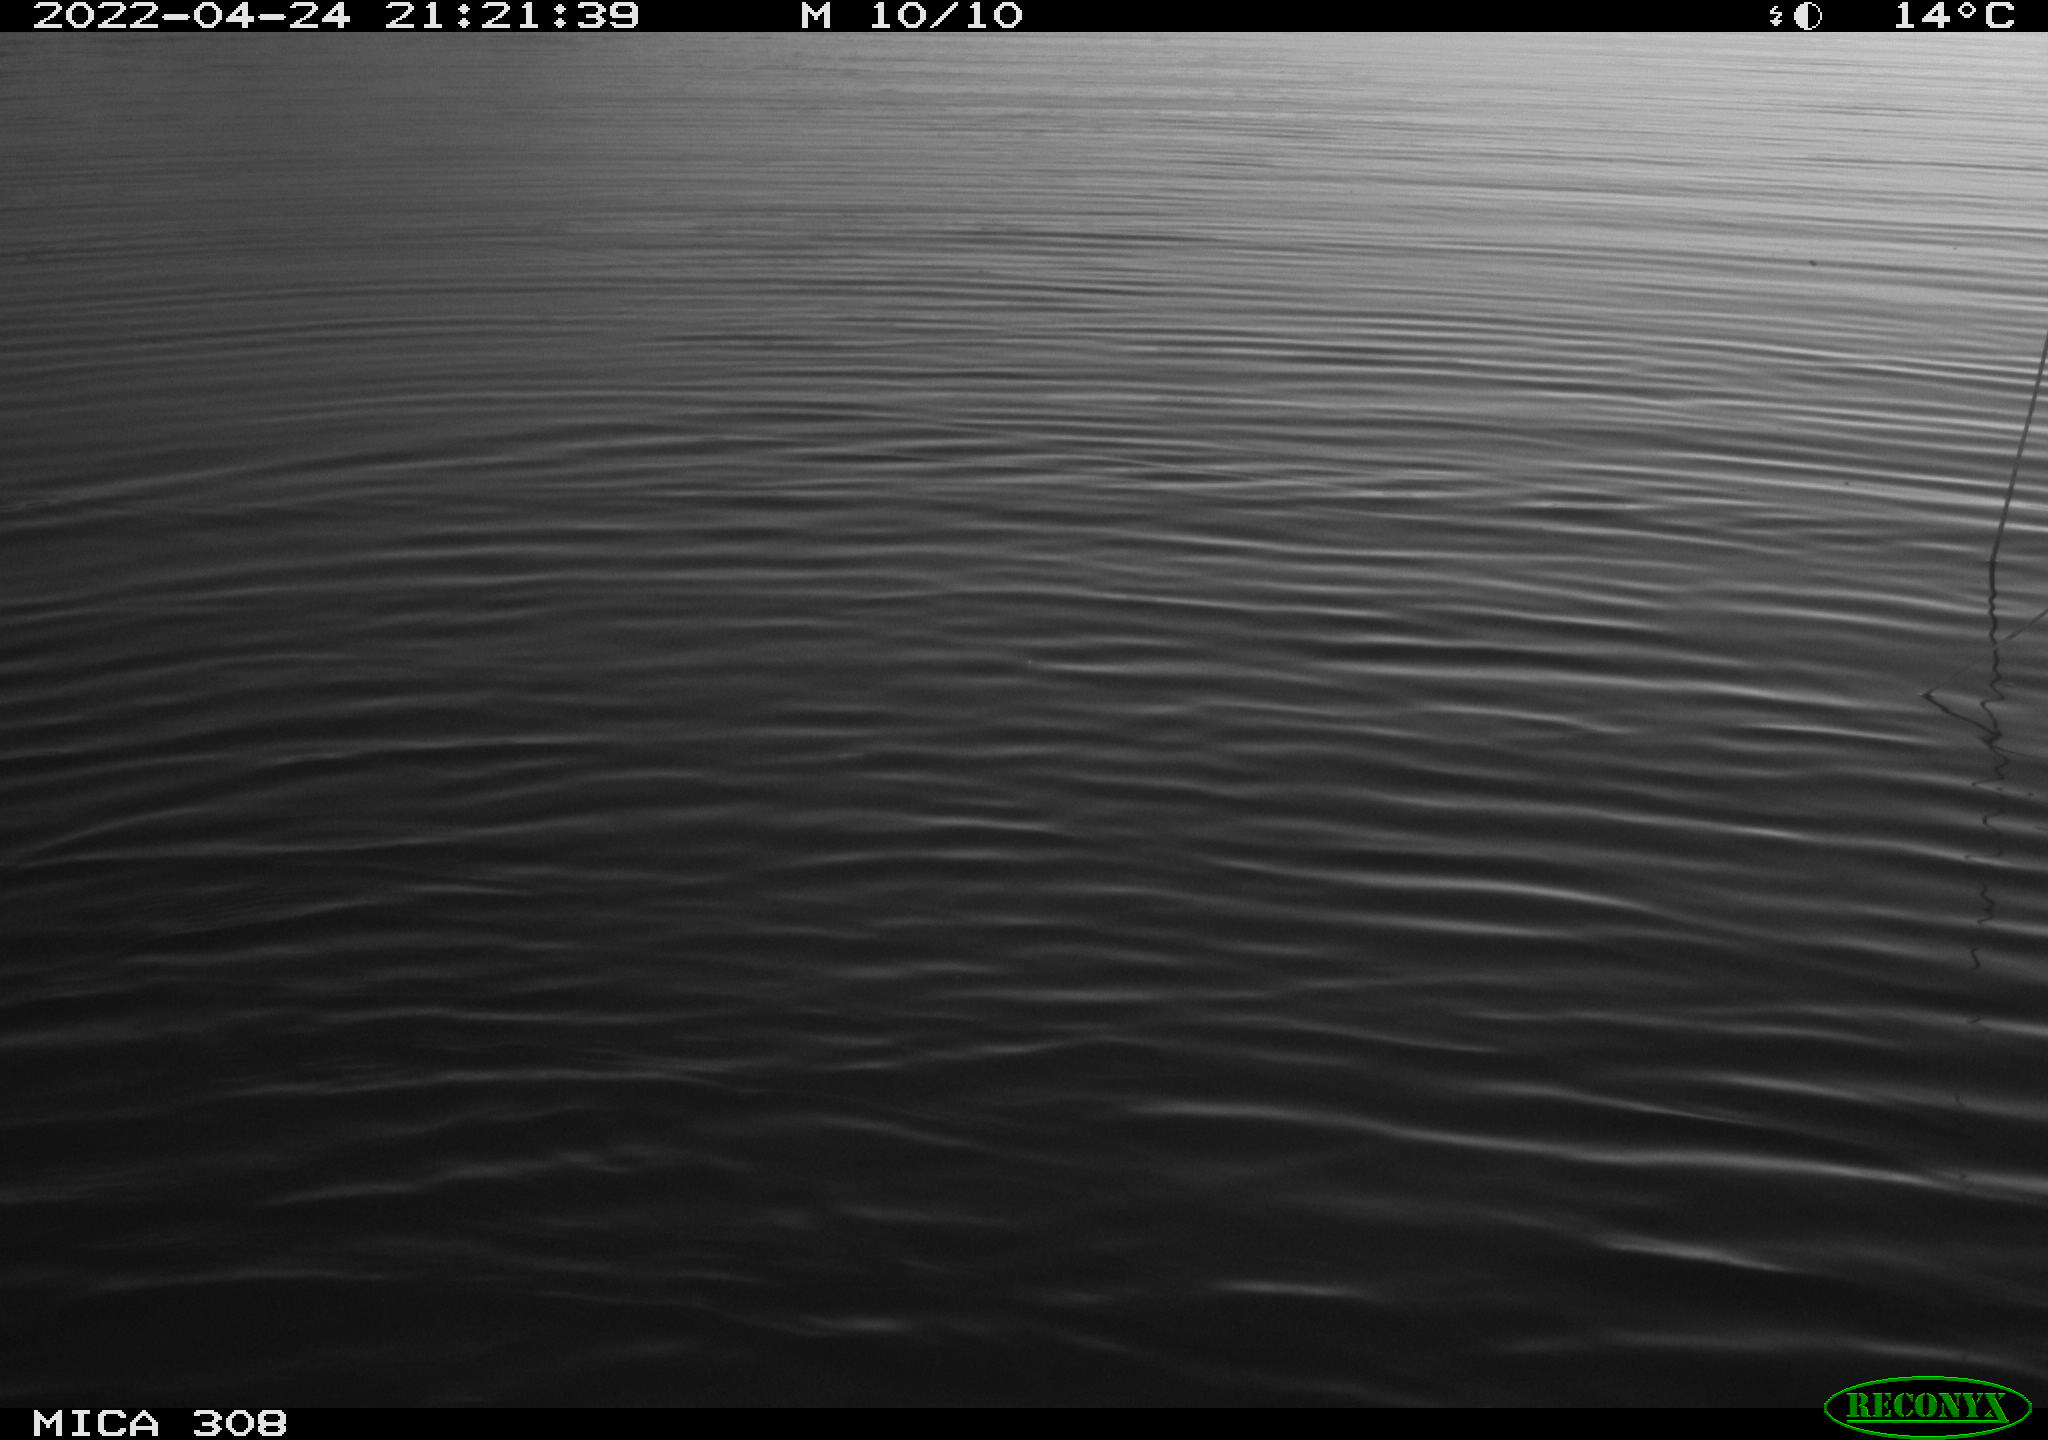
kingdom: Animalia
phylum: Chordata
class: Mammalia
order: Rodentia
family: Muridae
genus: Rattus
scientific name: Rattus norvegicus
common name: Brown rat
